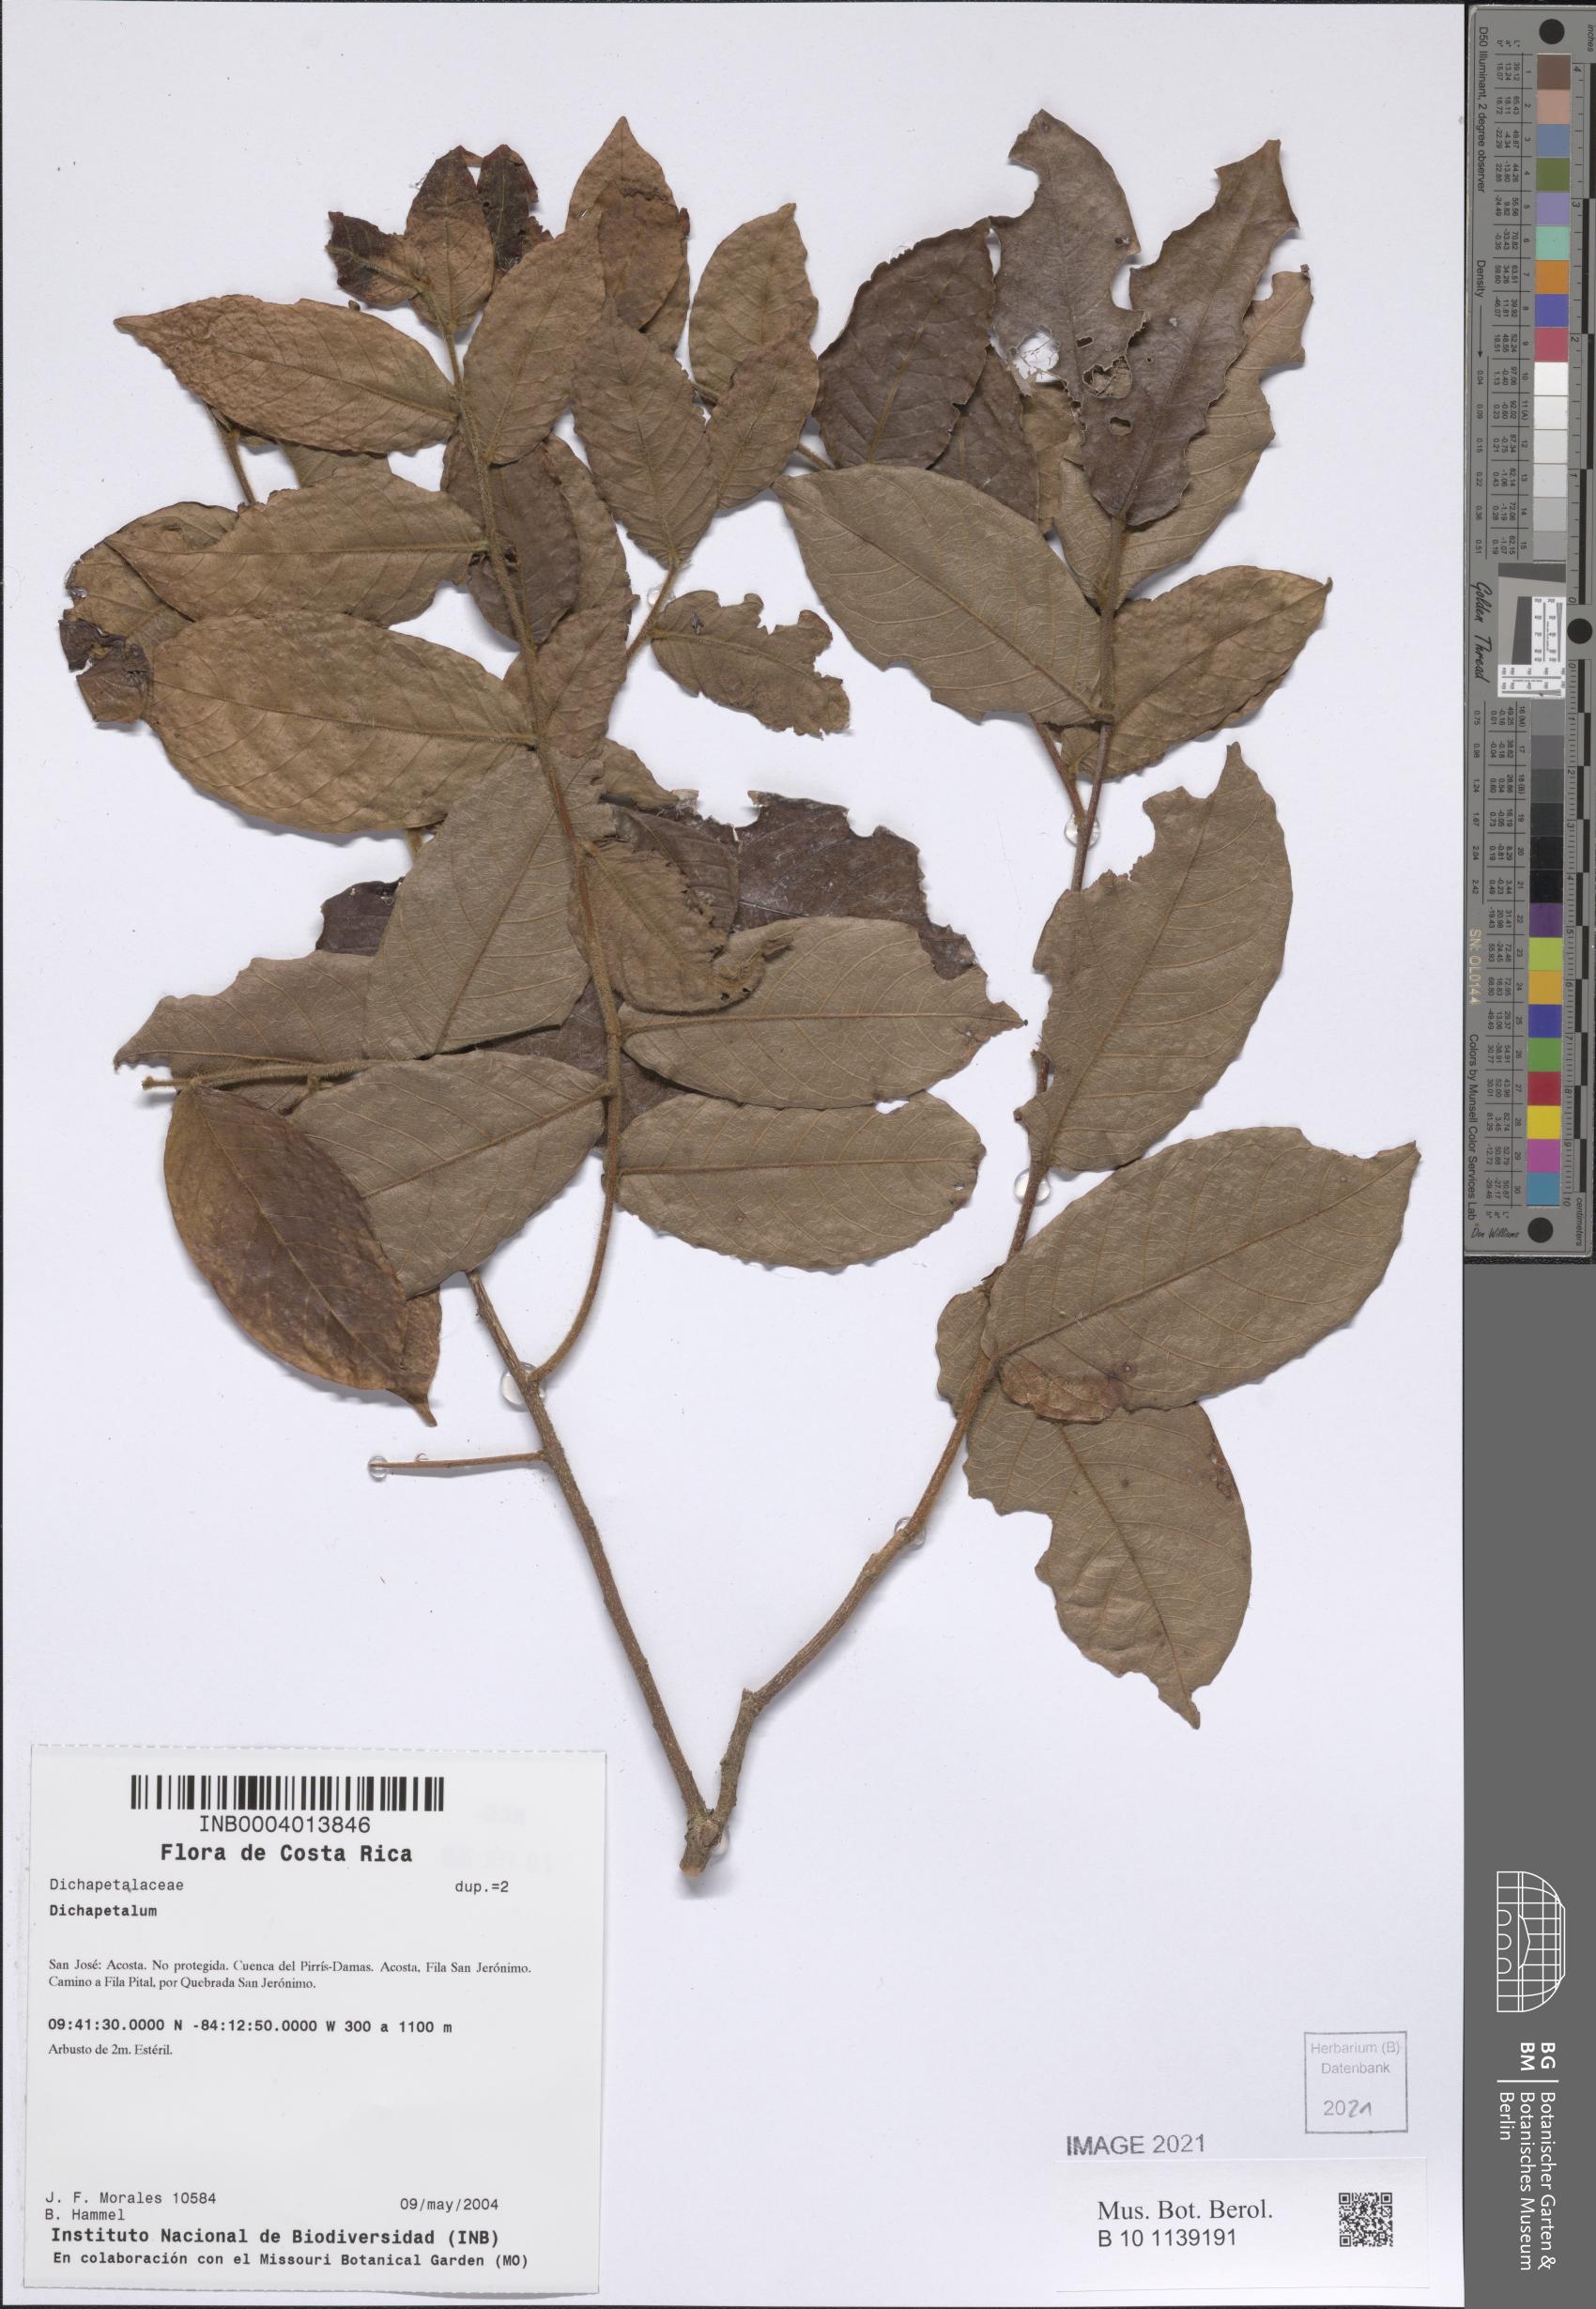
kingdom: Plantae
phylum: Tracheophyta
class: Magnoliopsida
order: Malpighiales
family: Dichapetalaceae
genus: Dichapetalum
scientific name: Dichapetalum
